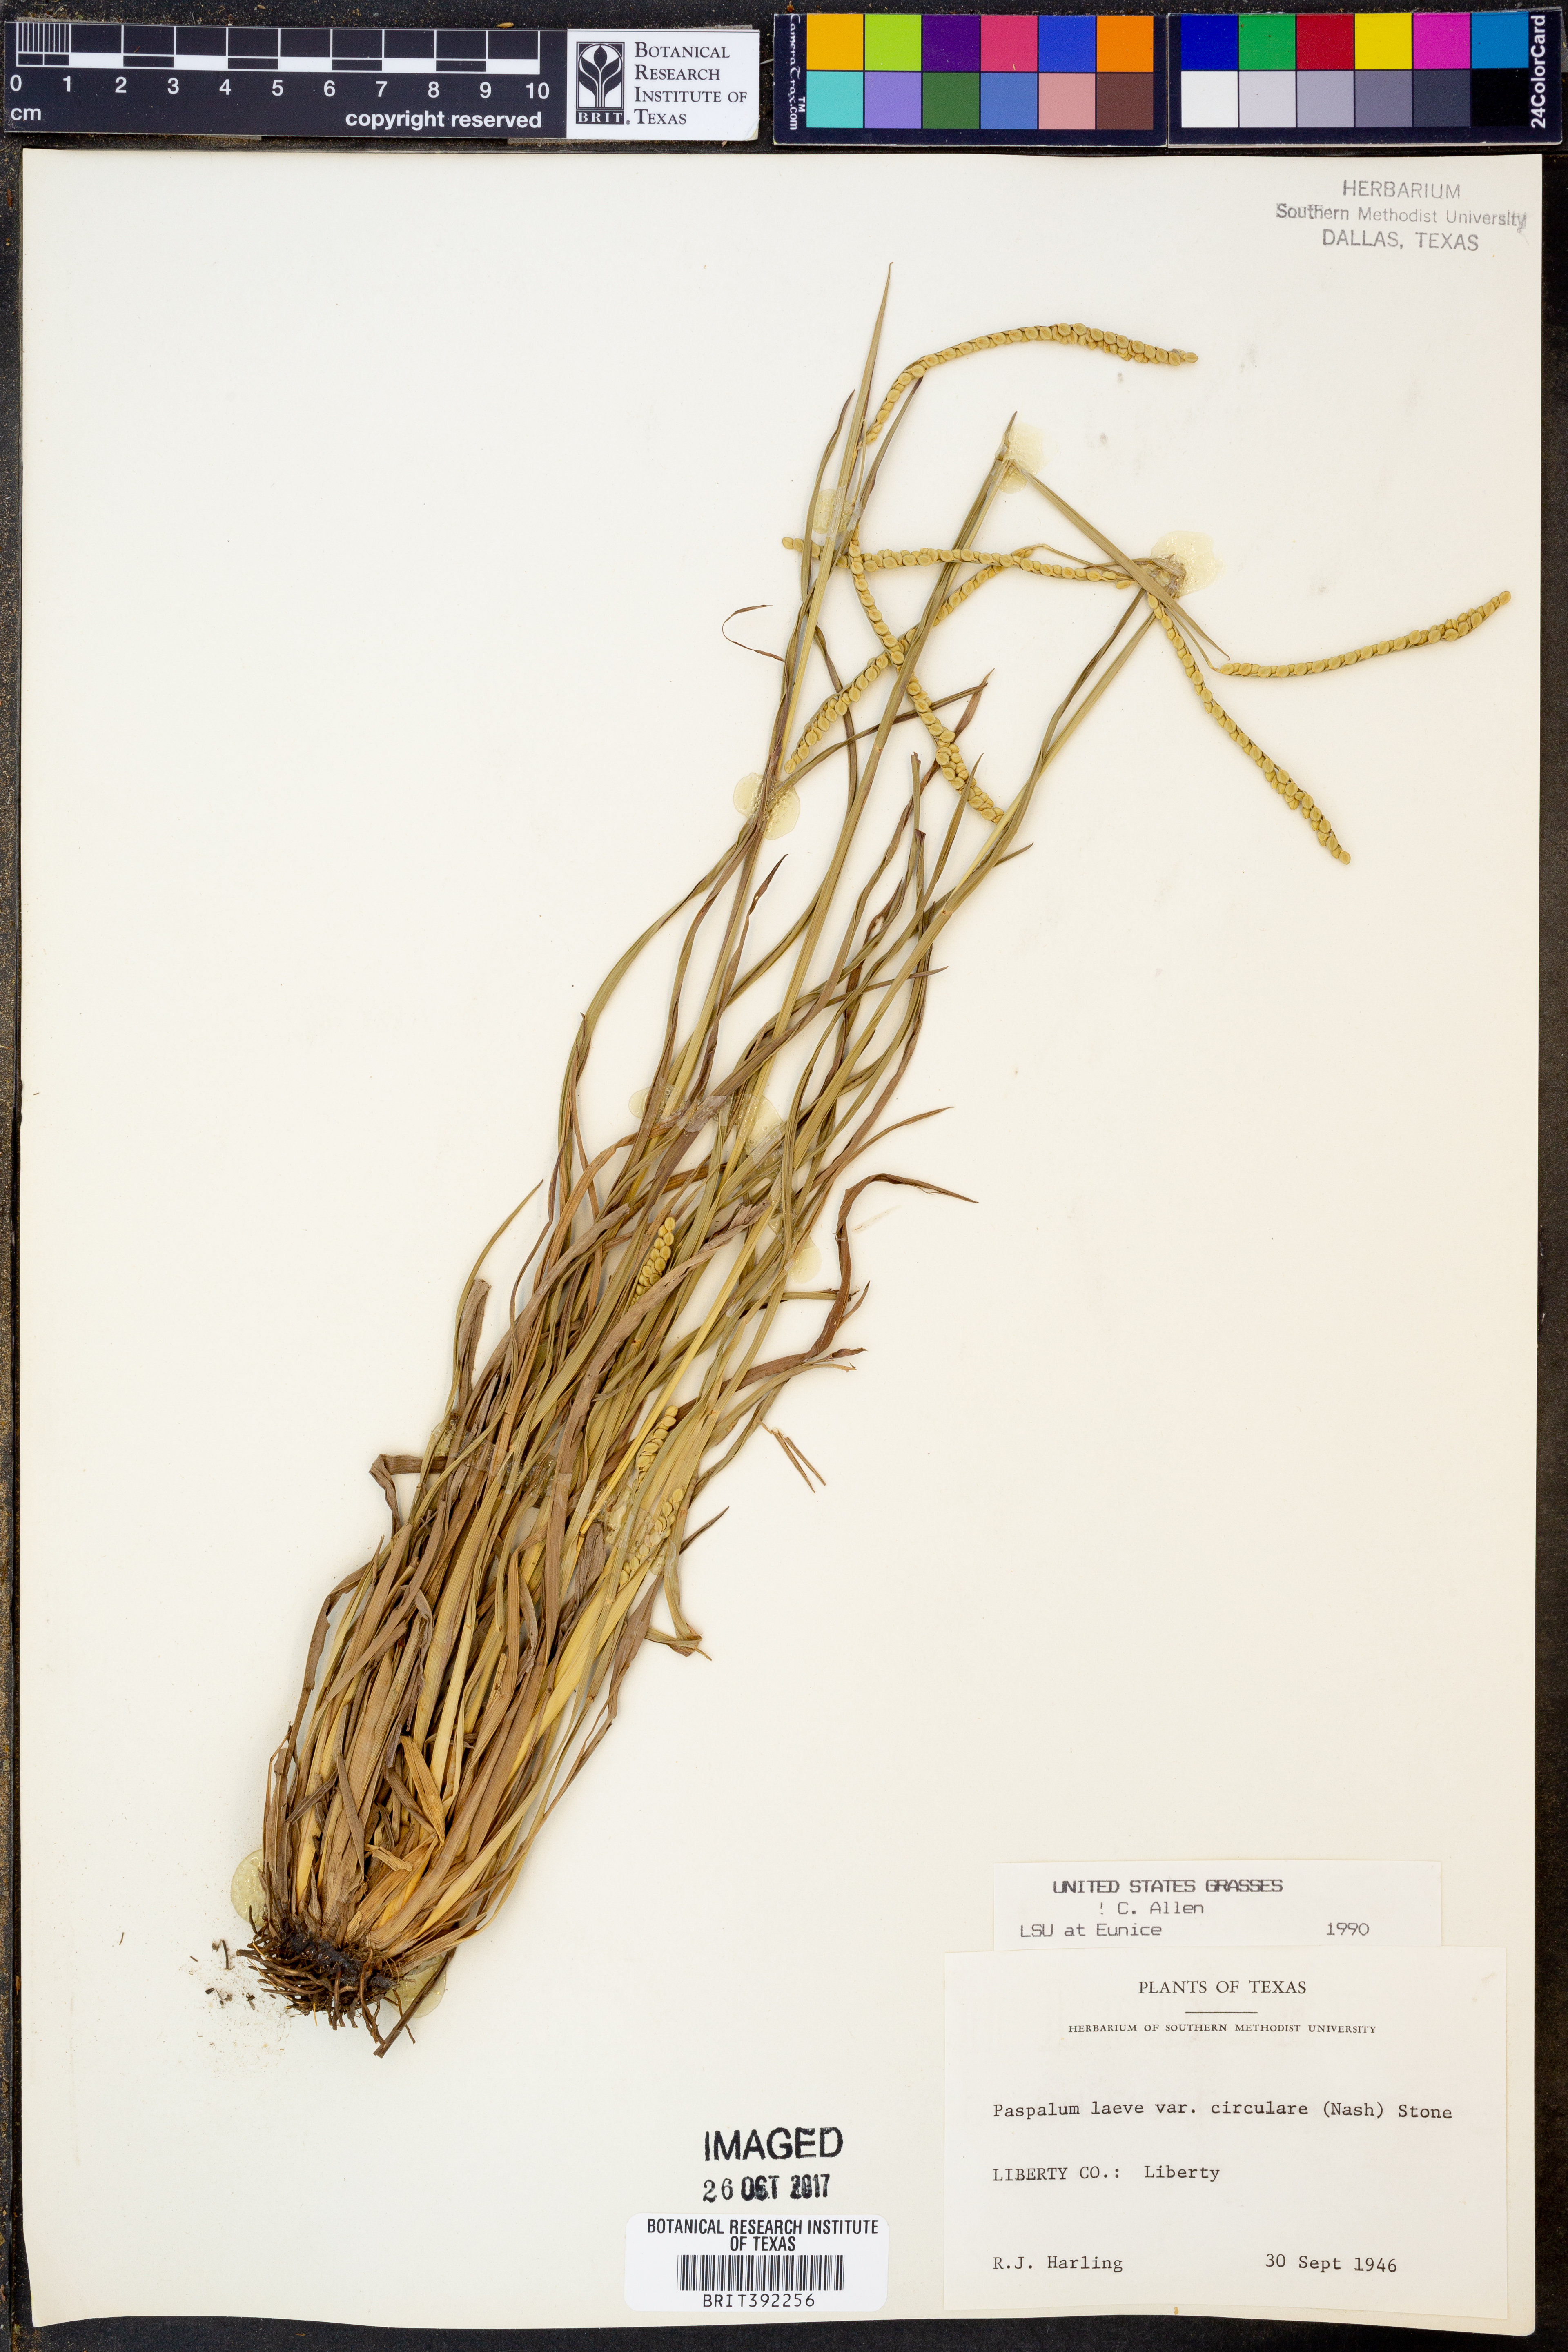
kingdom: Plantae
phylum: Tracheophyta
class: Liliopsida
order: Poales
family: Poaceae
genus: Paspalum
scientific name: Paspalum laeve
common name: Field paspalum
